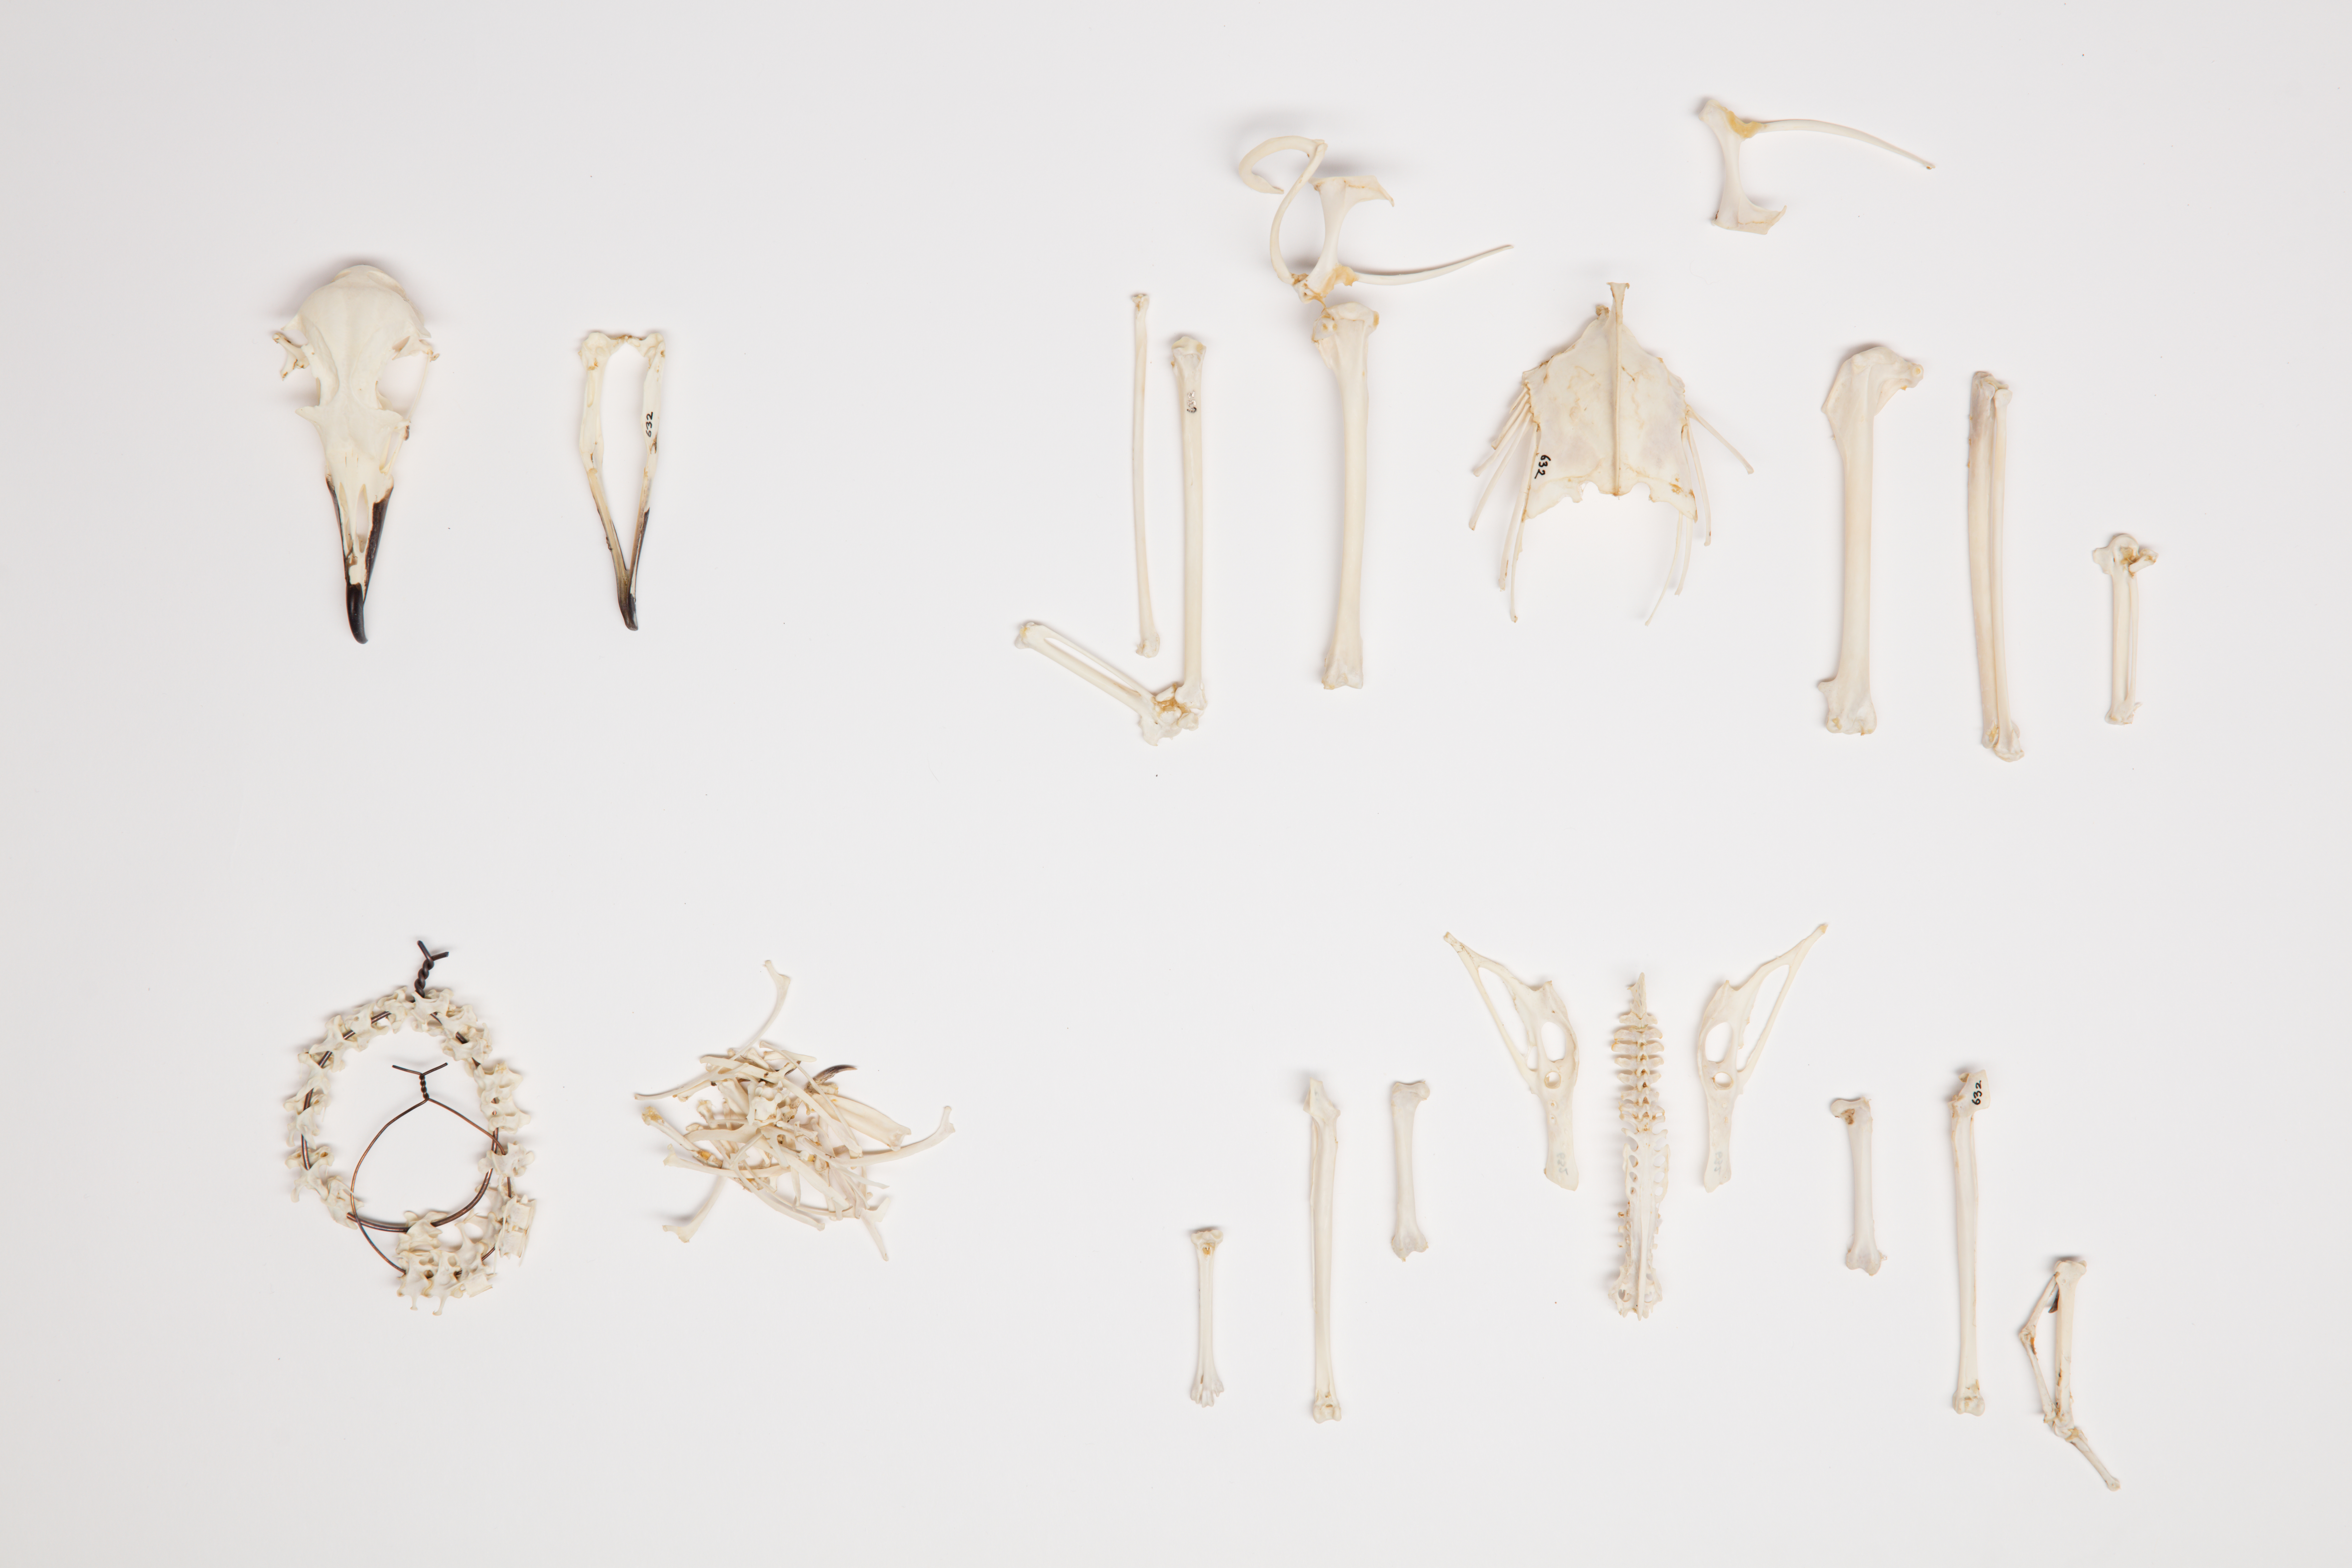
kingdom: Animalia
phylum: Chordata
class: Aves
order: Procellariiformes
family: Procellariidae
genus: Thalassoica
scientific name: Thalassoica antarctica
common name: Antarctic petrel
